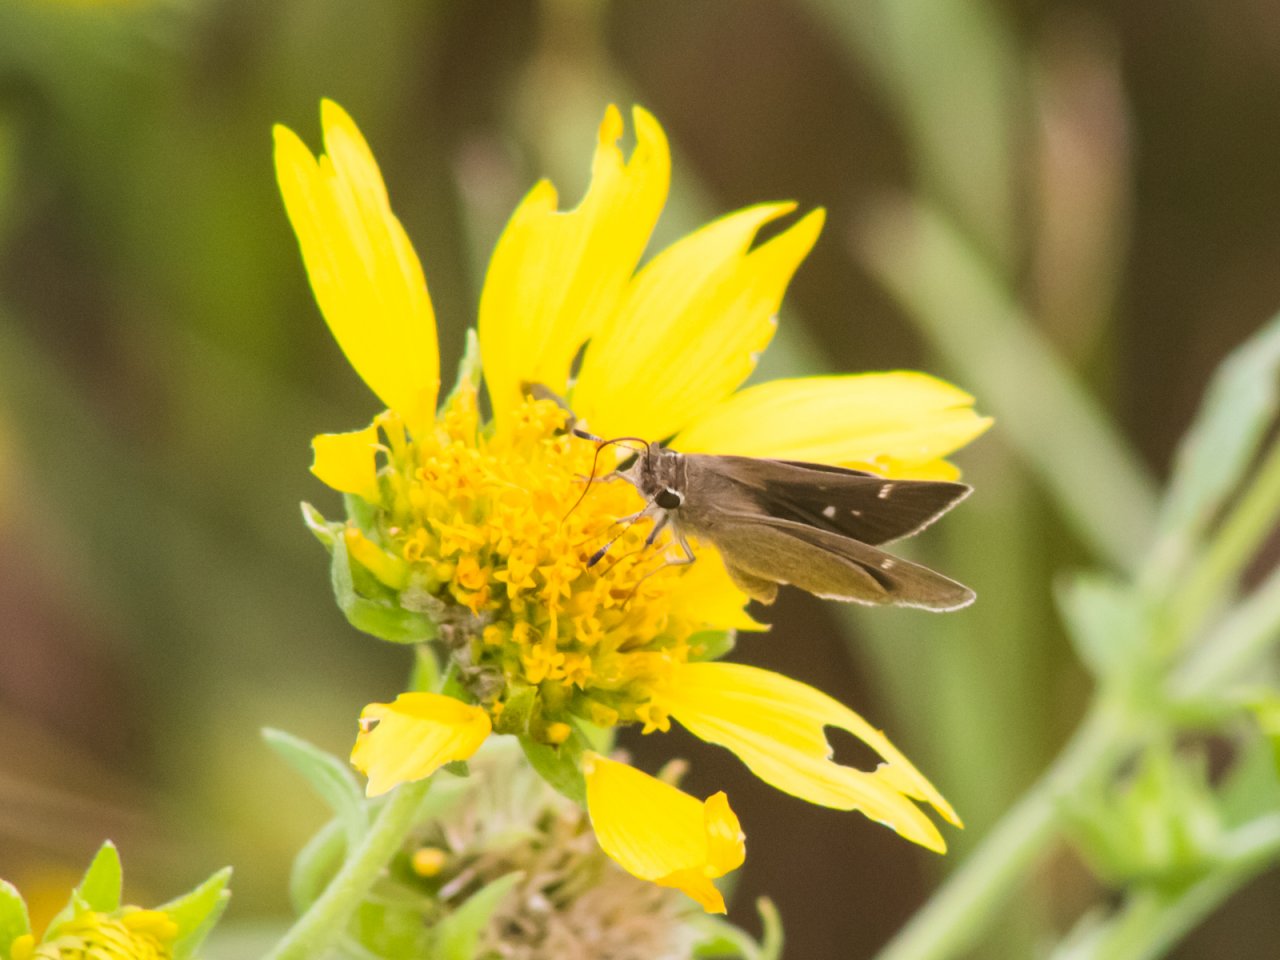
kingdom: Animalia
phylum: Arthropoda
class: Insecta
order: Lepidoptera
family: Hesperiidae
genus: Lerodea
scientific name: Lerodea eufala
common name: Eufala Skipper
